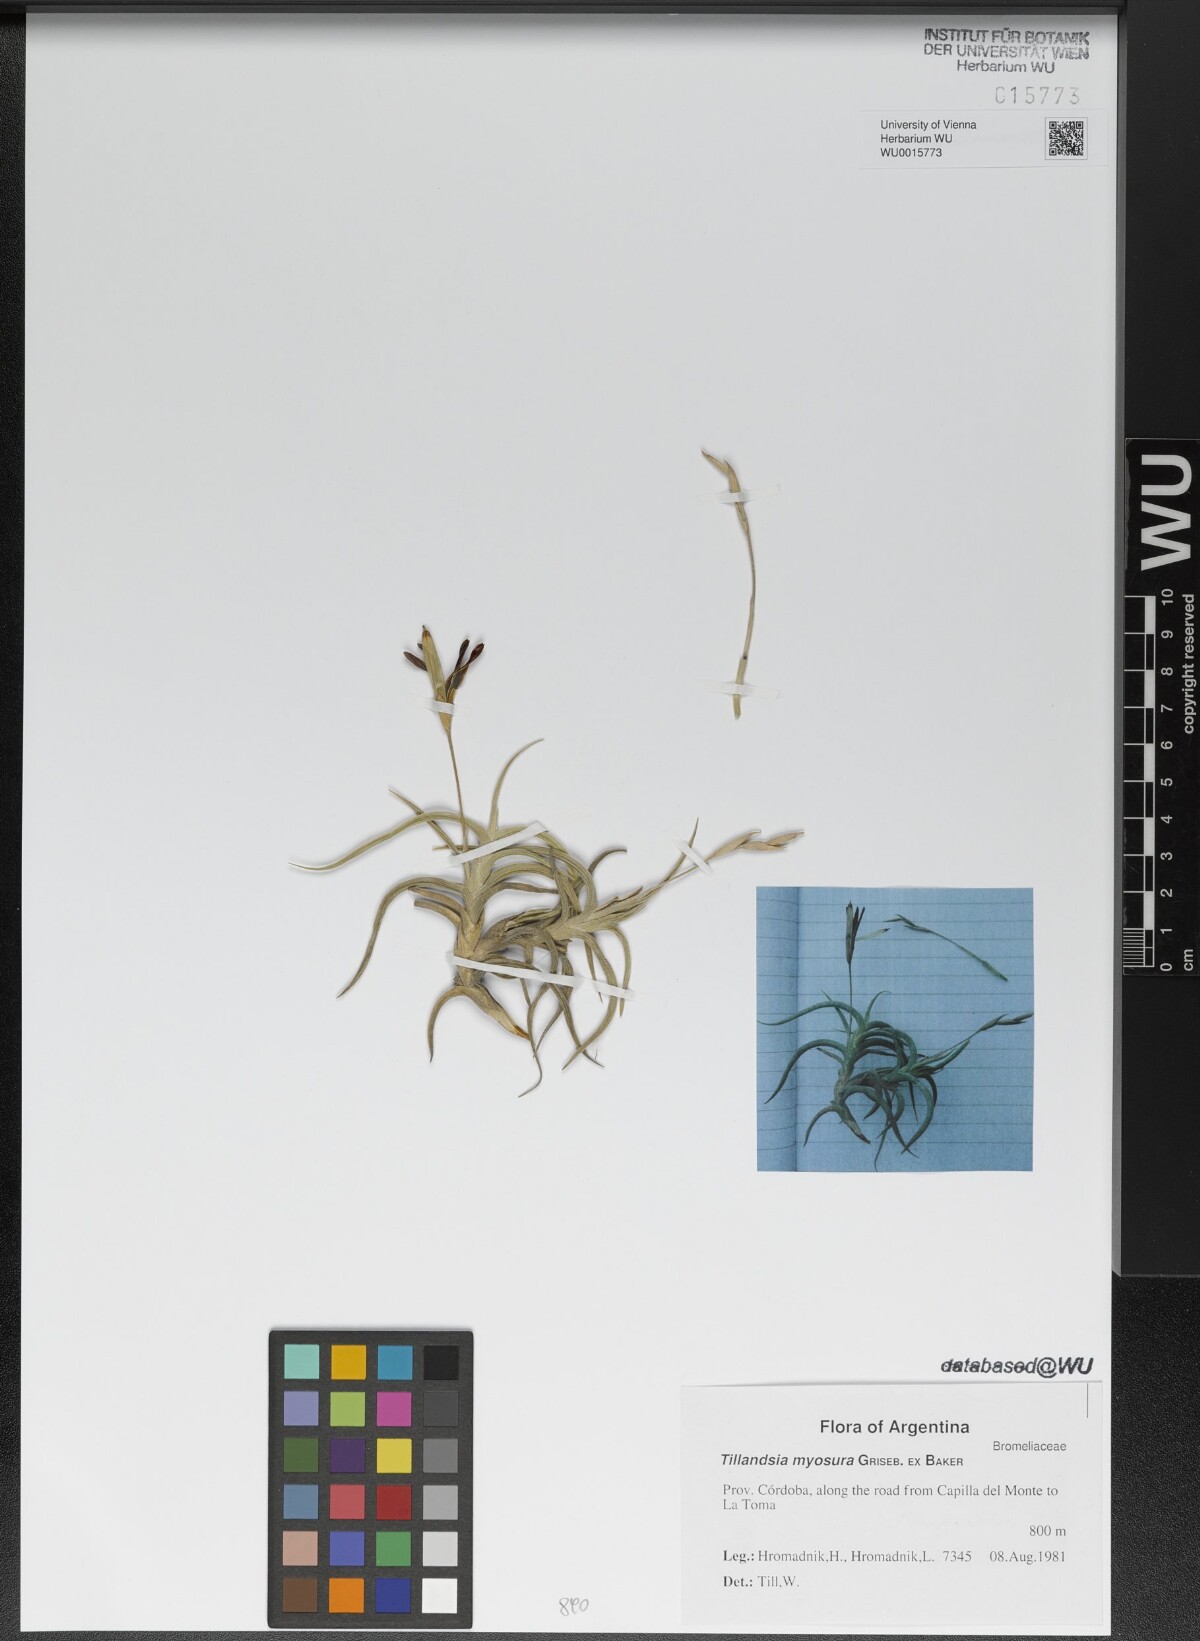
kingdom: Plantae
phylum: Tracheophyta
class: Liliopsida
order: Poales
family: Bromeliaceae
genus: Tillandsia
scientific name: Tillandsia myosura
